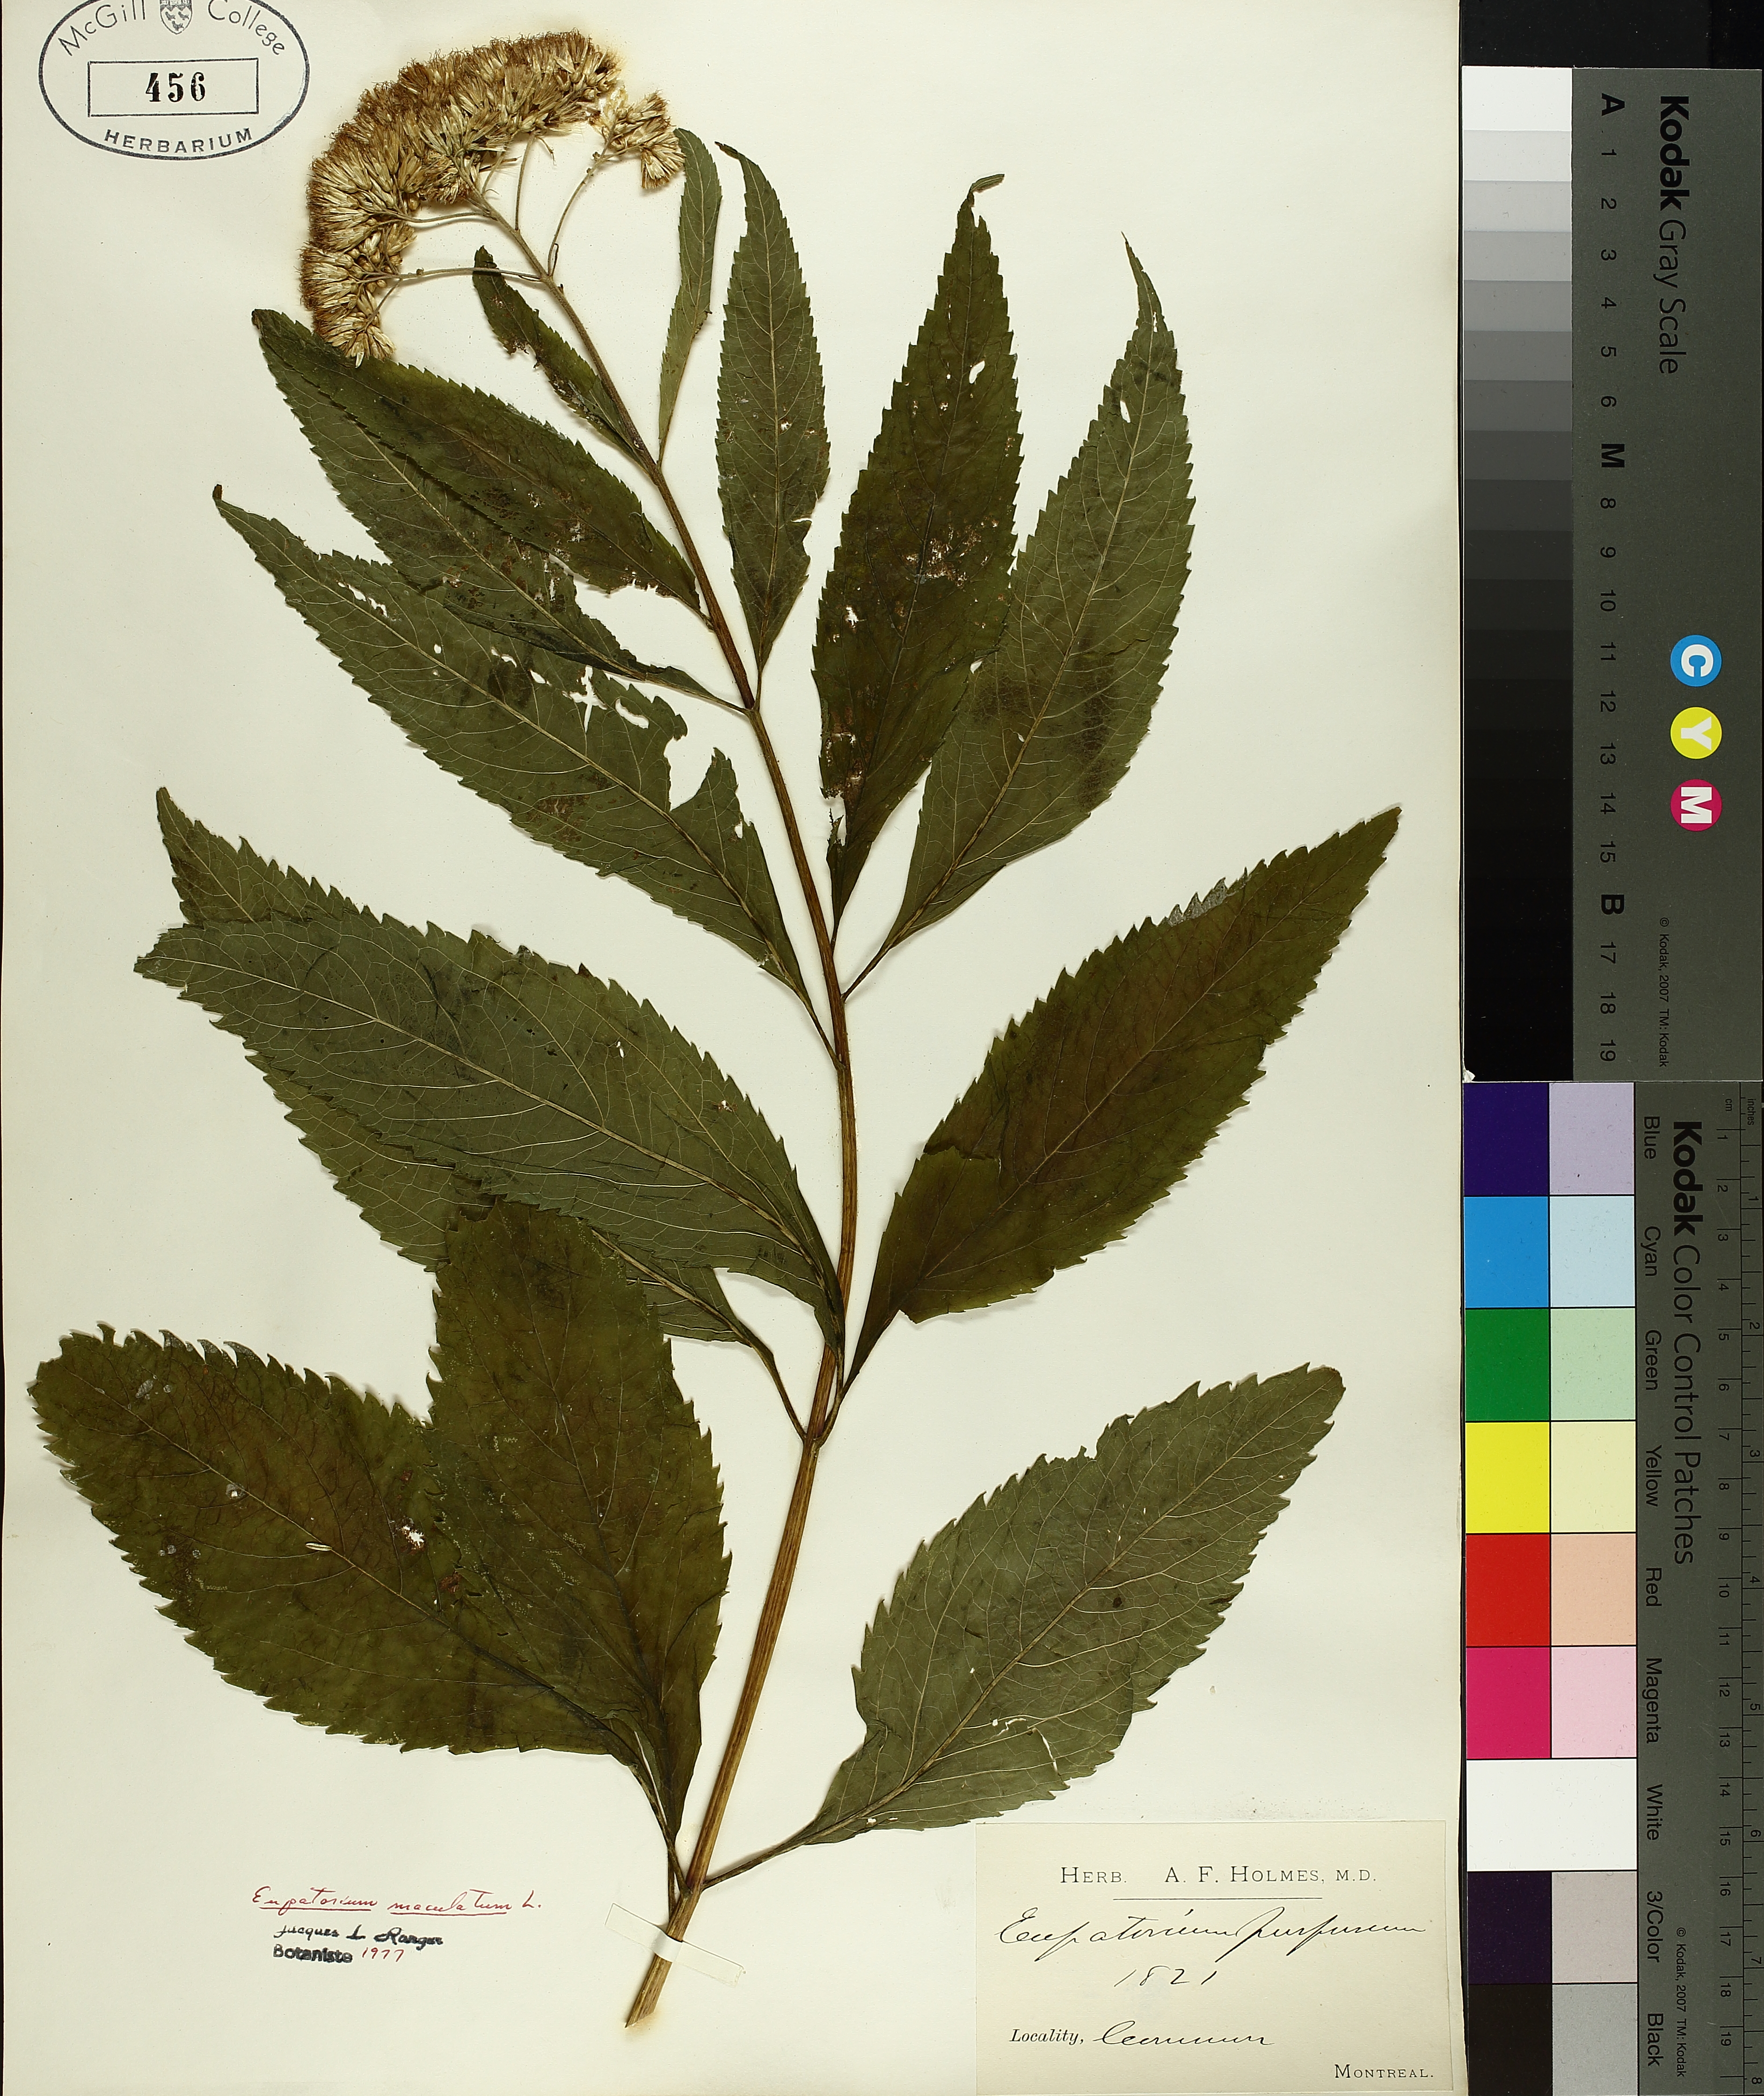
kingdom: Plantae
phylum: Tracheophyta
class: Magnoliopsida
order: Asterales
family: Asteraceae
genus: Eutrochium
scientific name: Eutrochium maculatum
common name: Spotted joe pye weed
